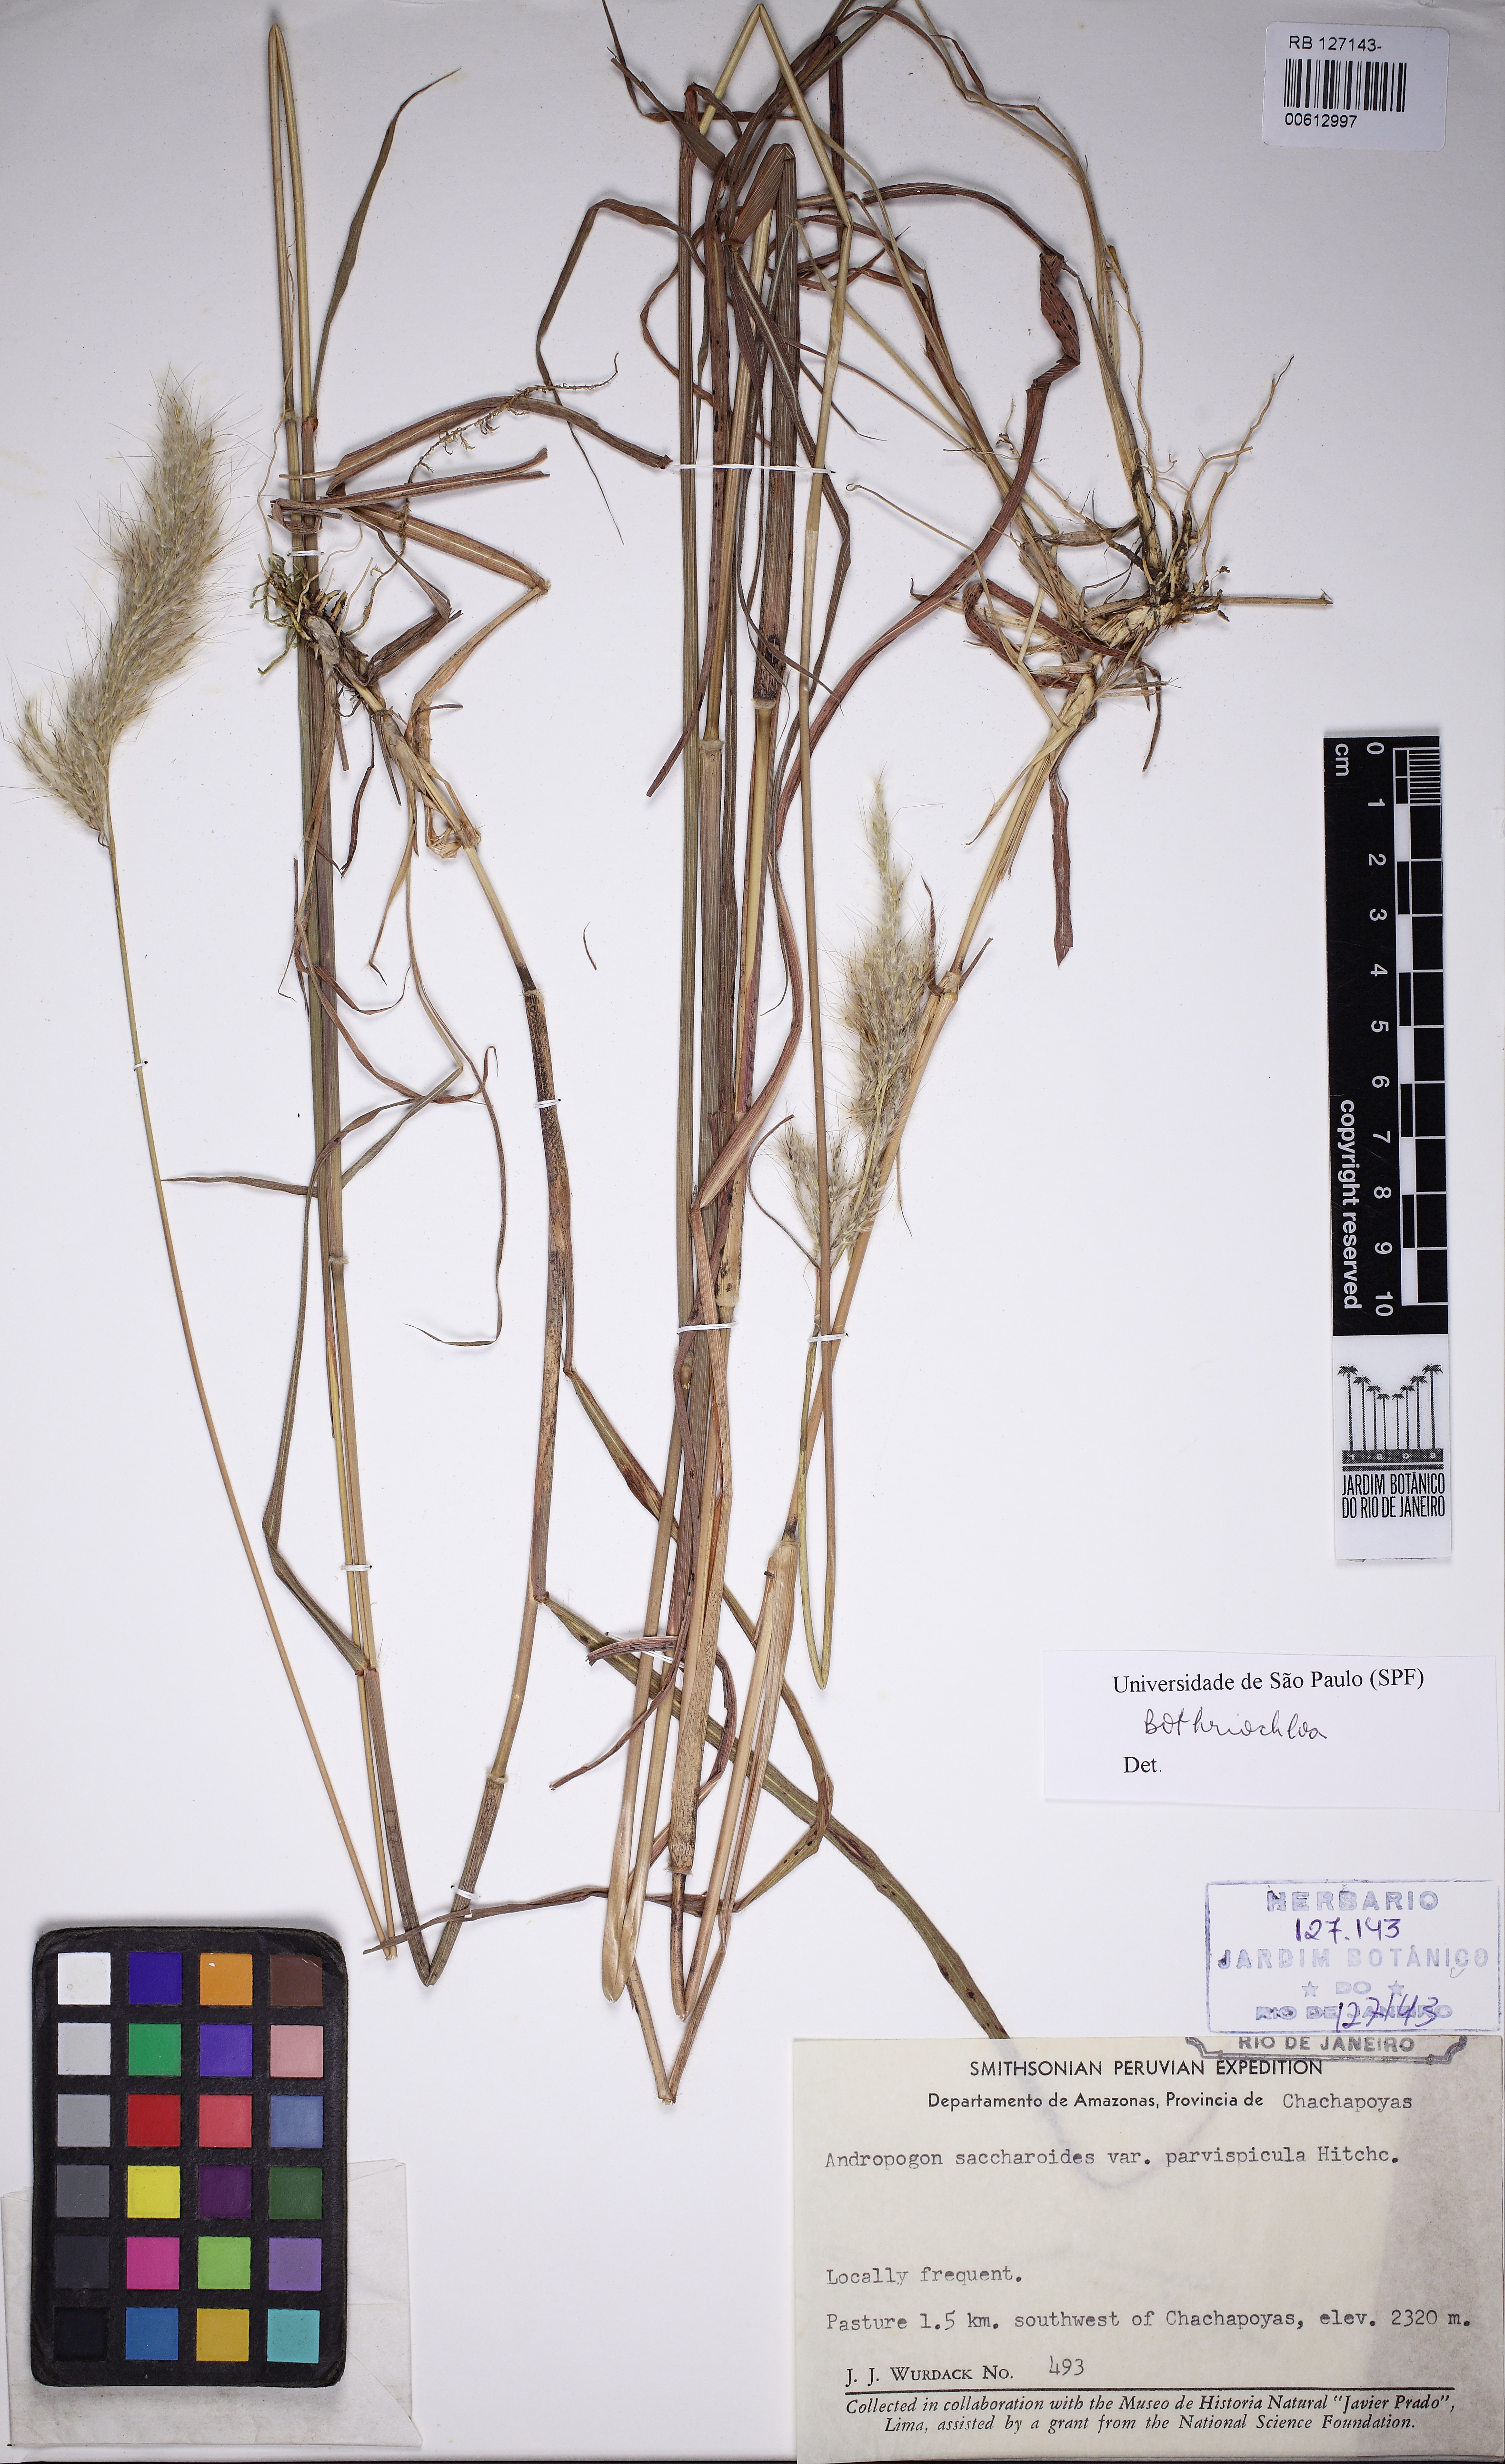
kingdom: Plantae
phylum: Tracheophyta
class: Liliopsida
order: Poales
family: Poaceae
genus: Bothriochloa
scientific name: Bothriochloa
